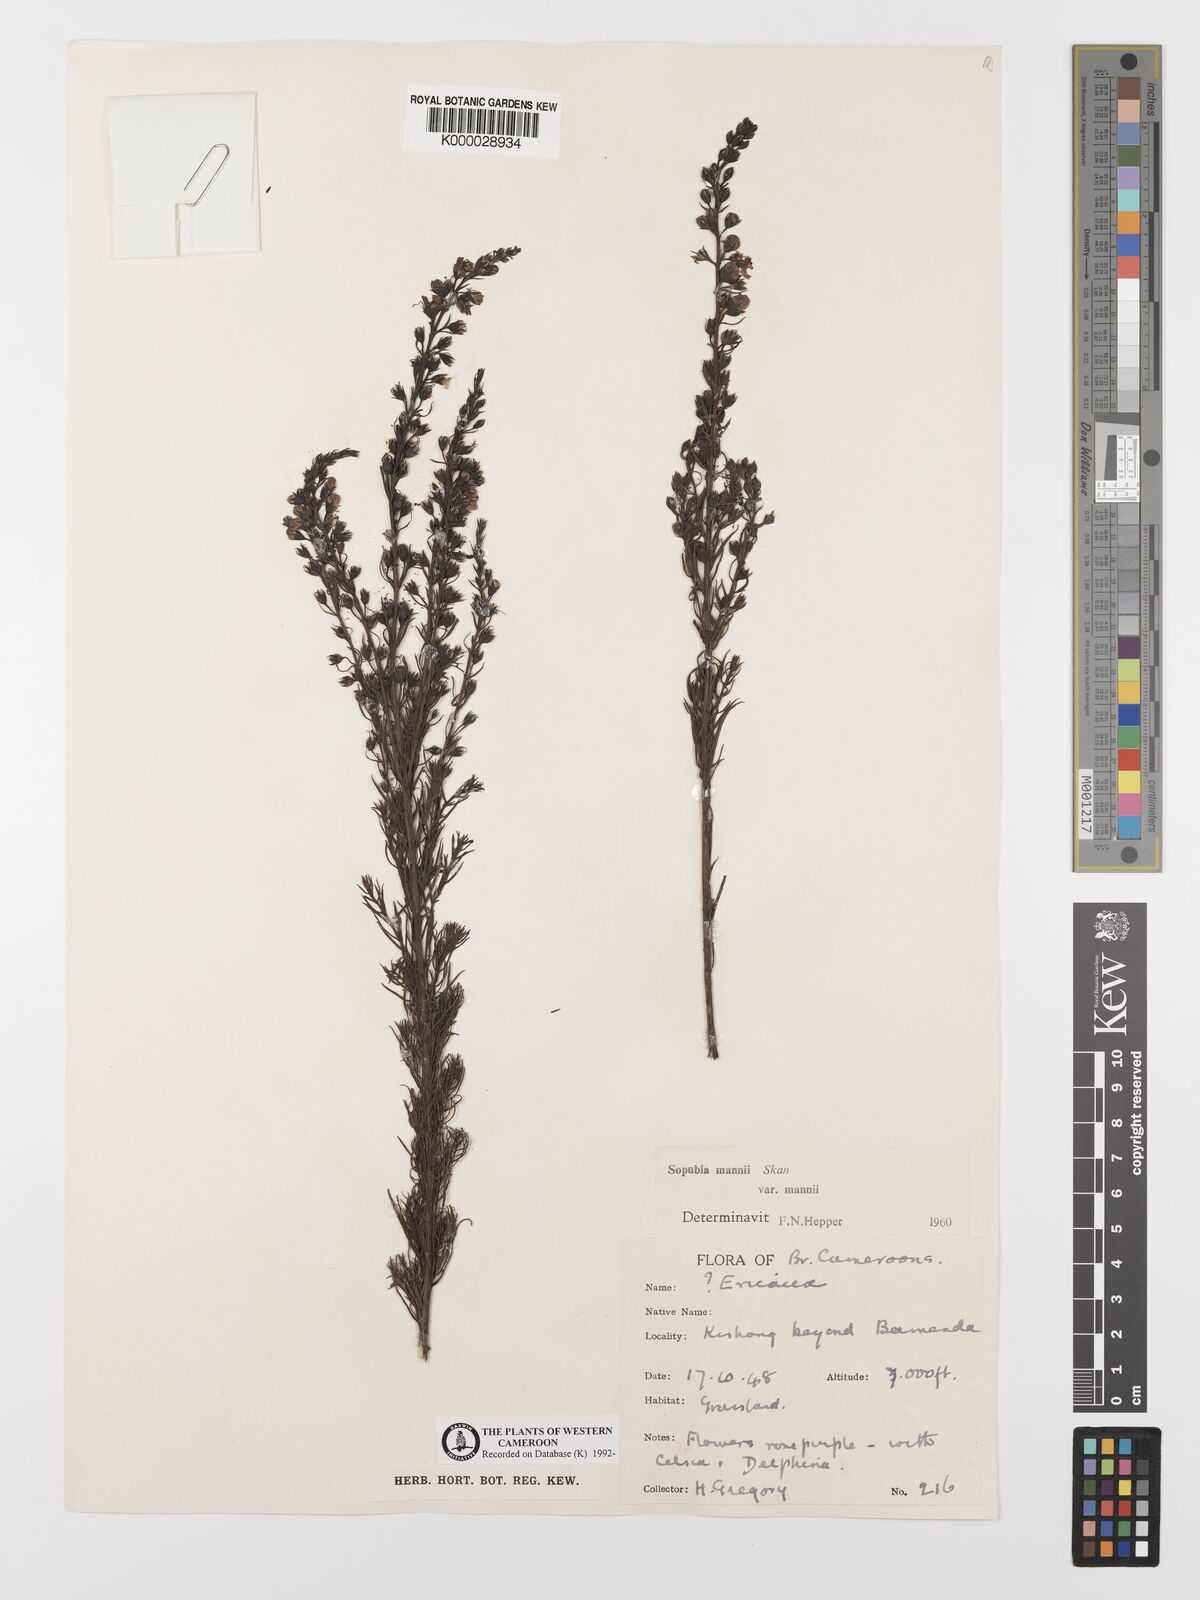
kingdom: Plantae
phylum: Tracheophyta
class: Magnoliopsida
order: Lamiales
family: Orobanchaceae
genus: Sopubia
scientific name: Sopubia mannii
